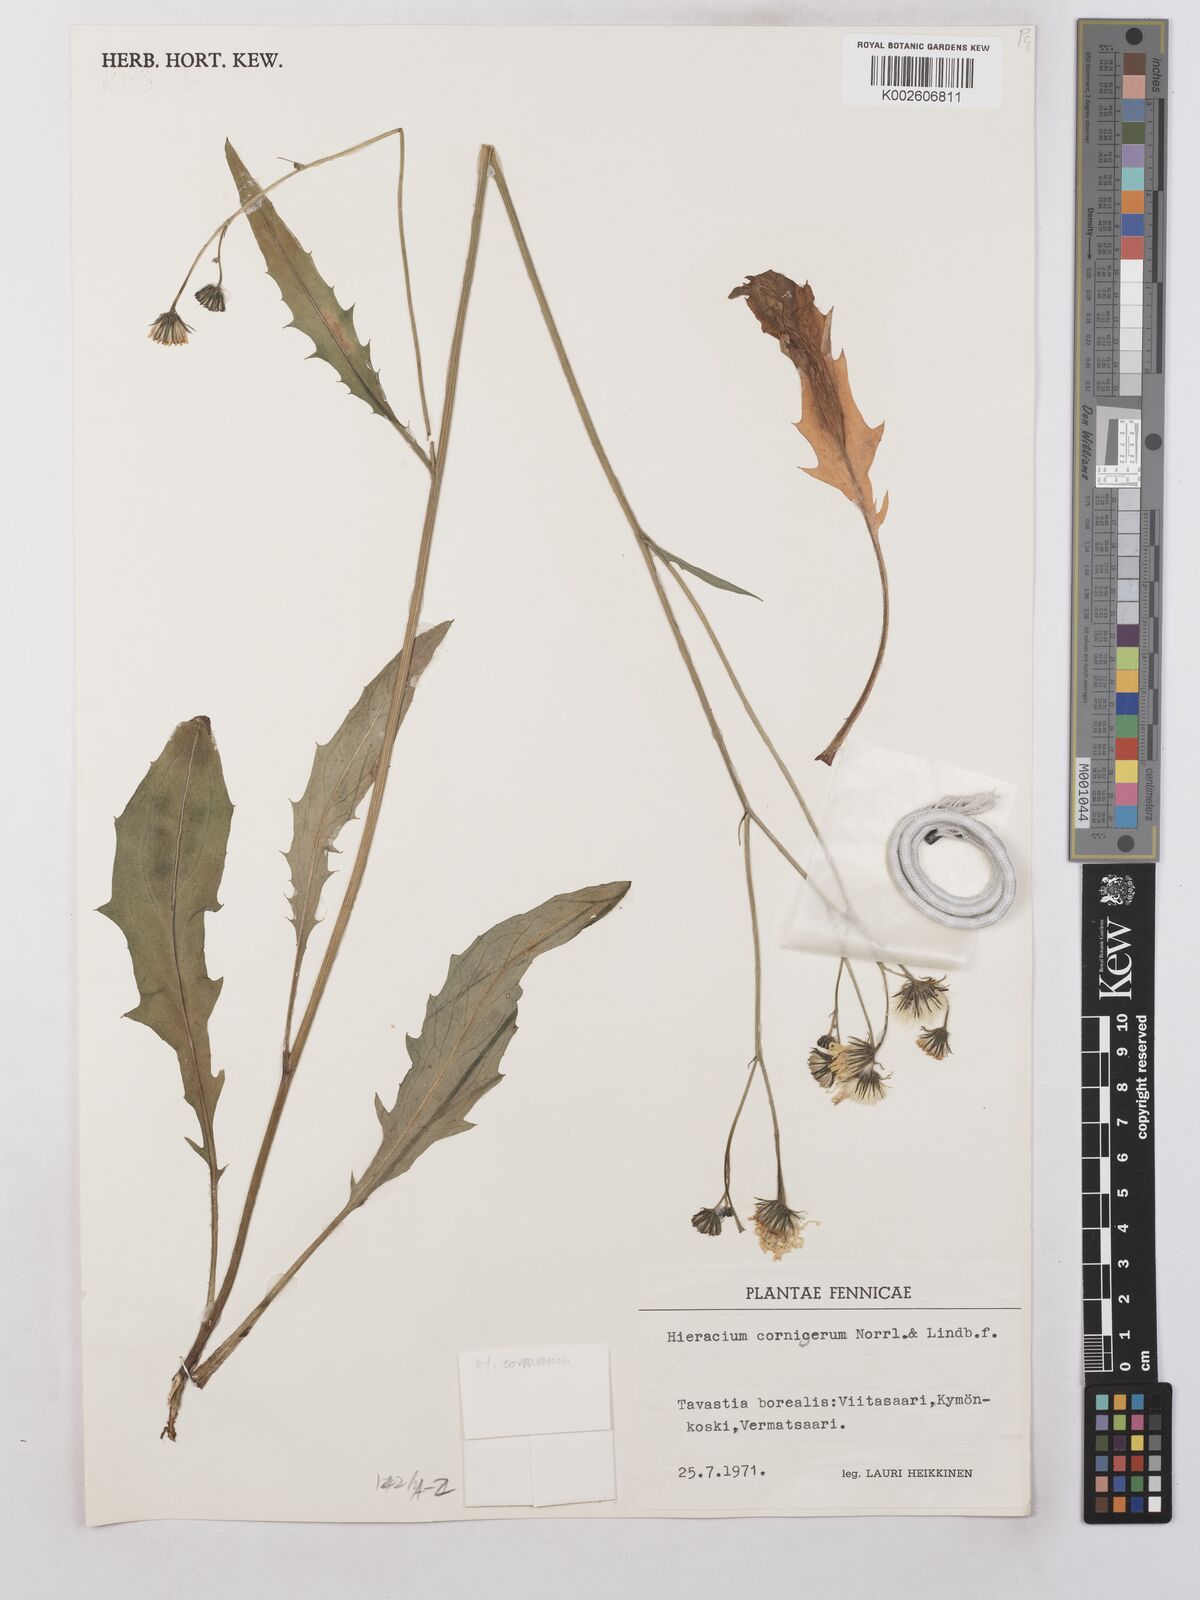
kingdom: Plantae
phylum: Tracheophyta
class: Magnoliopsida
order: Asterales
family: Asteraceae
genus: Hieracium
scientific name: Hieracium cornigerum
